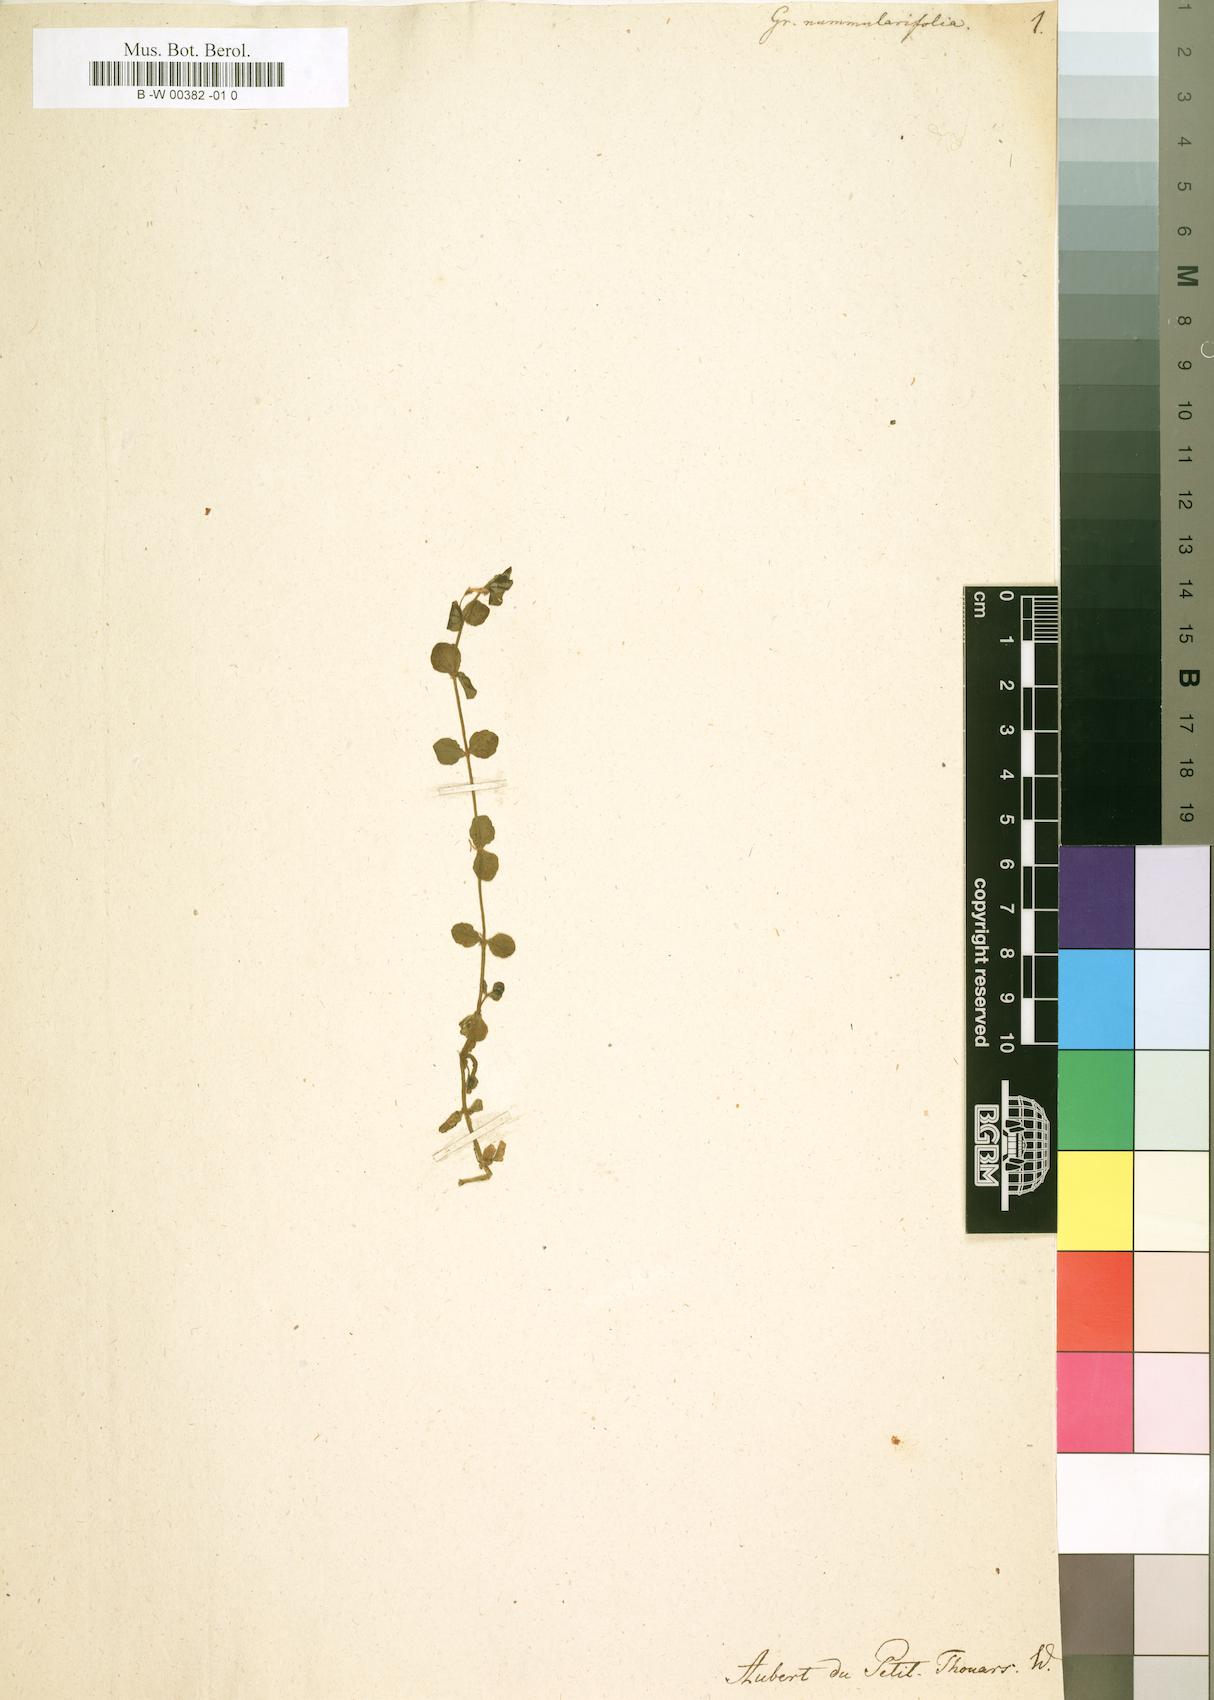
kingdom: Plantae
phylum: Tracheophyta
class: Magnoliopsida
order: Lamiales
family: Plantaginaceae
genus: Gratiola
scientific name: Gratiola nummulariifolia
